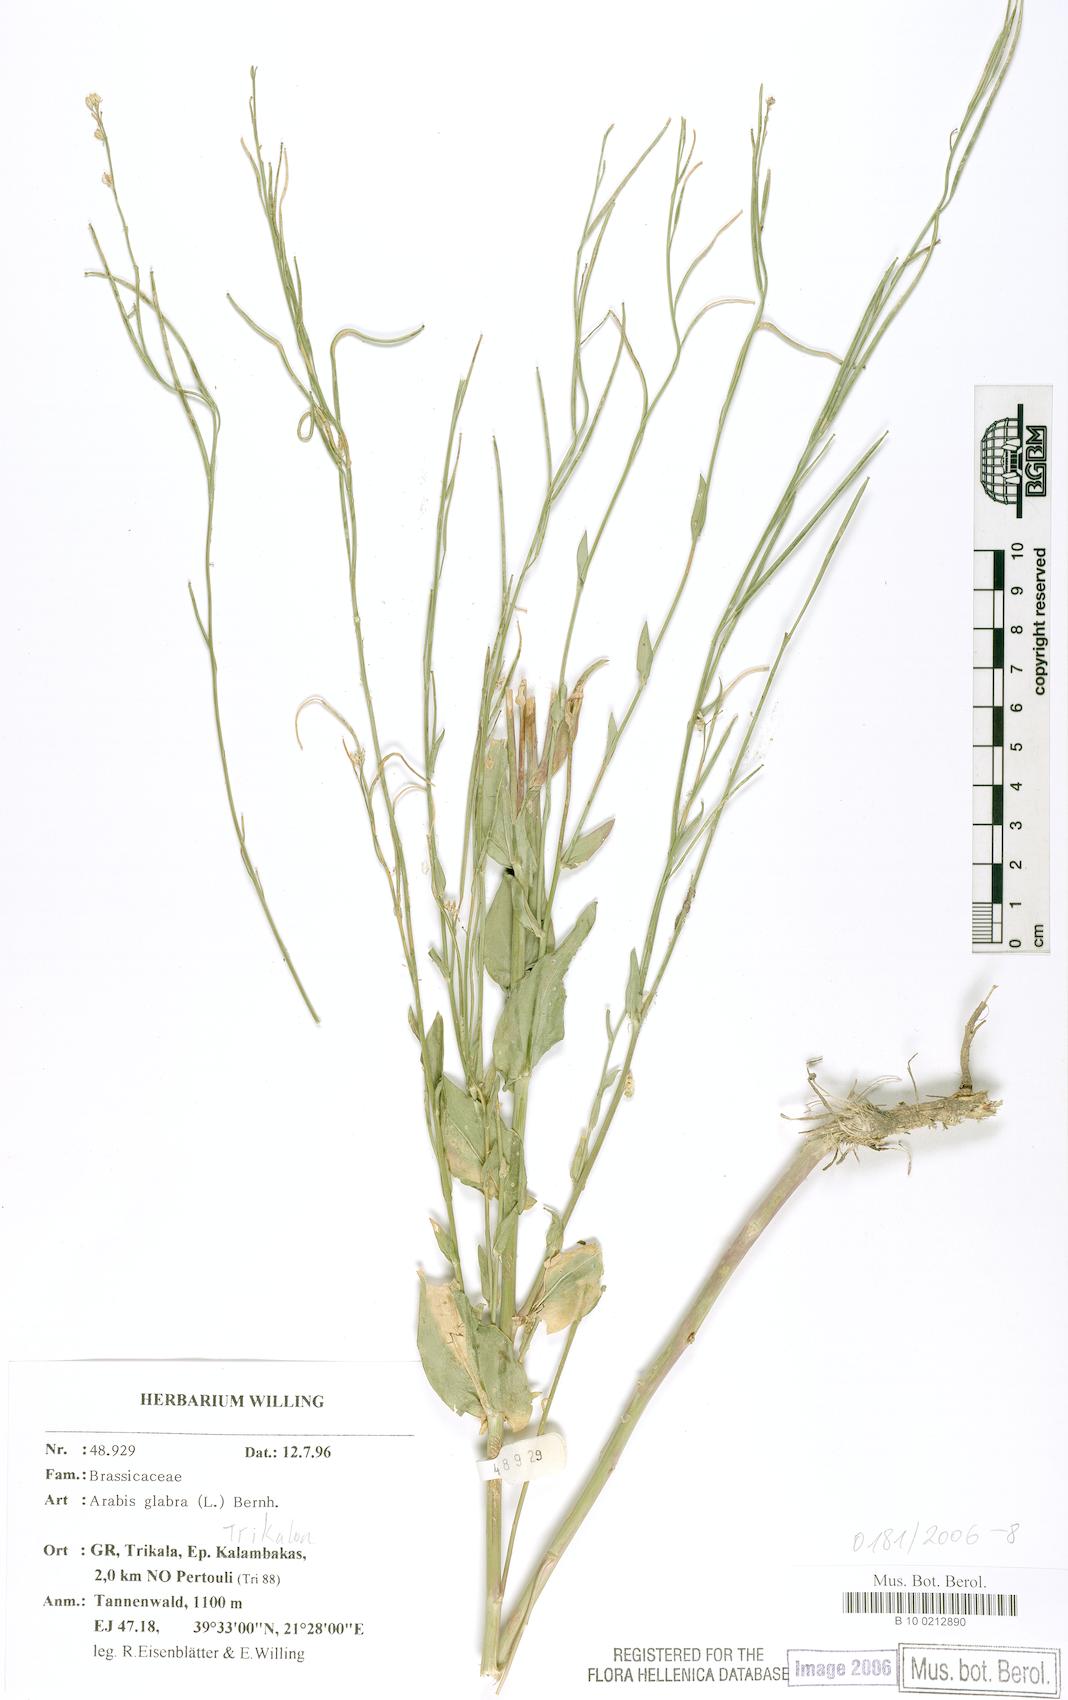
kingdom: Plantae
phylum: Tracheophyta
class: Magnoliopsida
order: Brassicales
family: Brassicaceae
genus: Turritis
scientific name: Turritis glabra
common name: Tower rockcress
